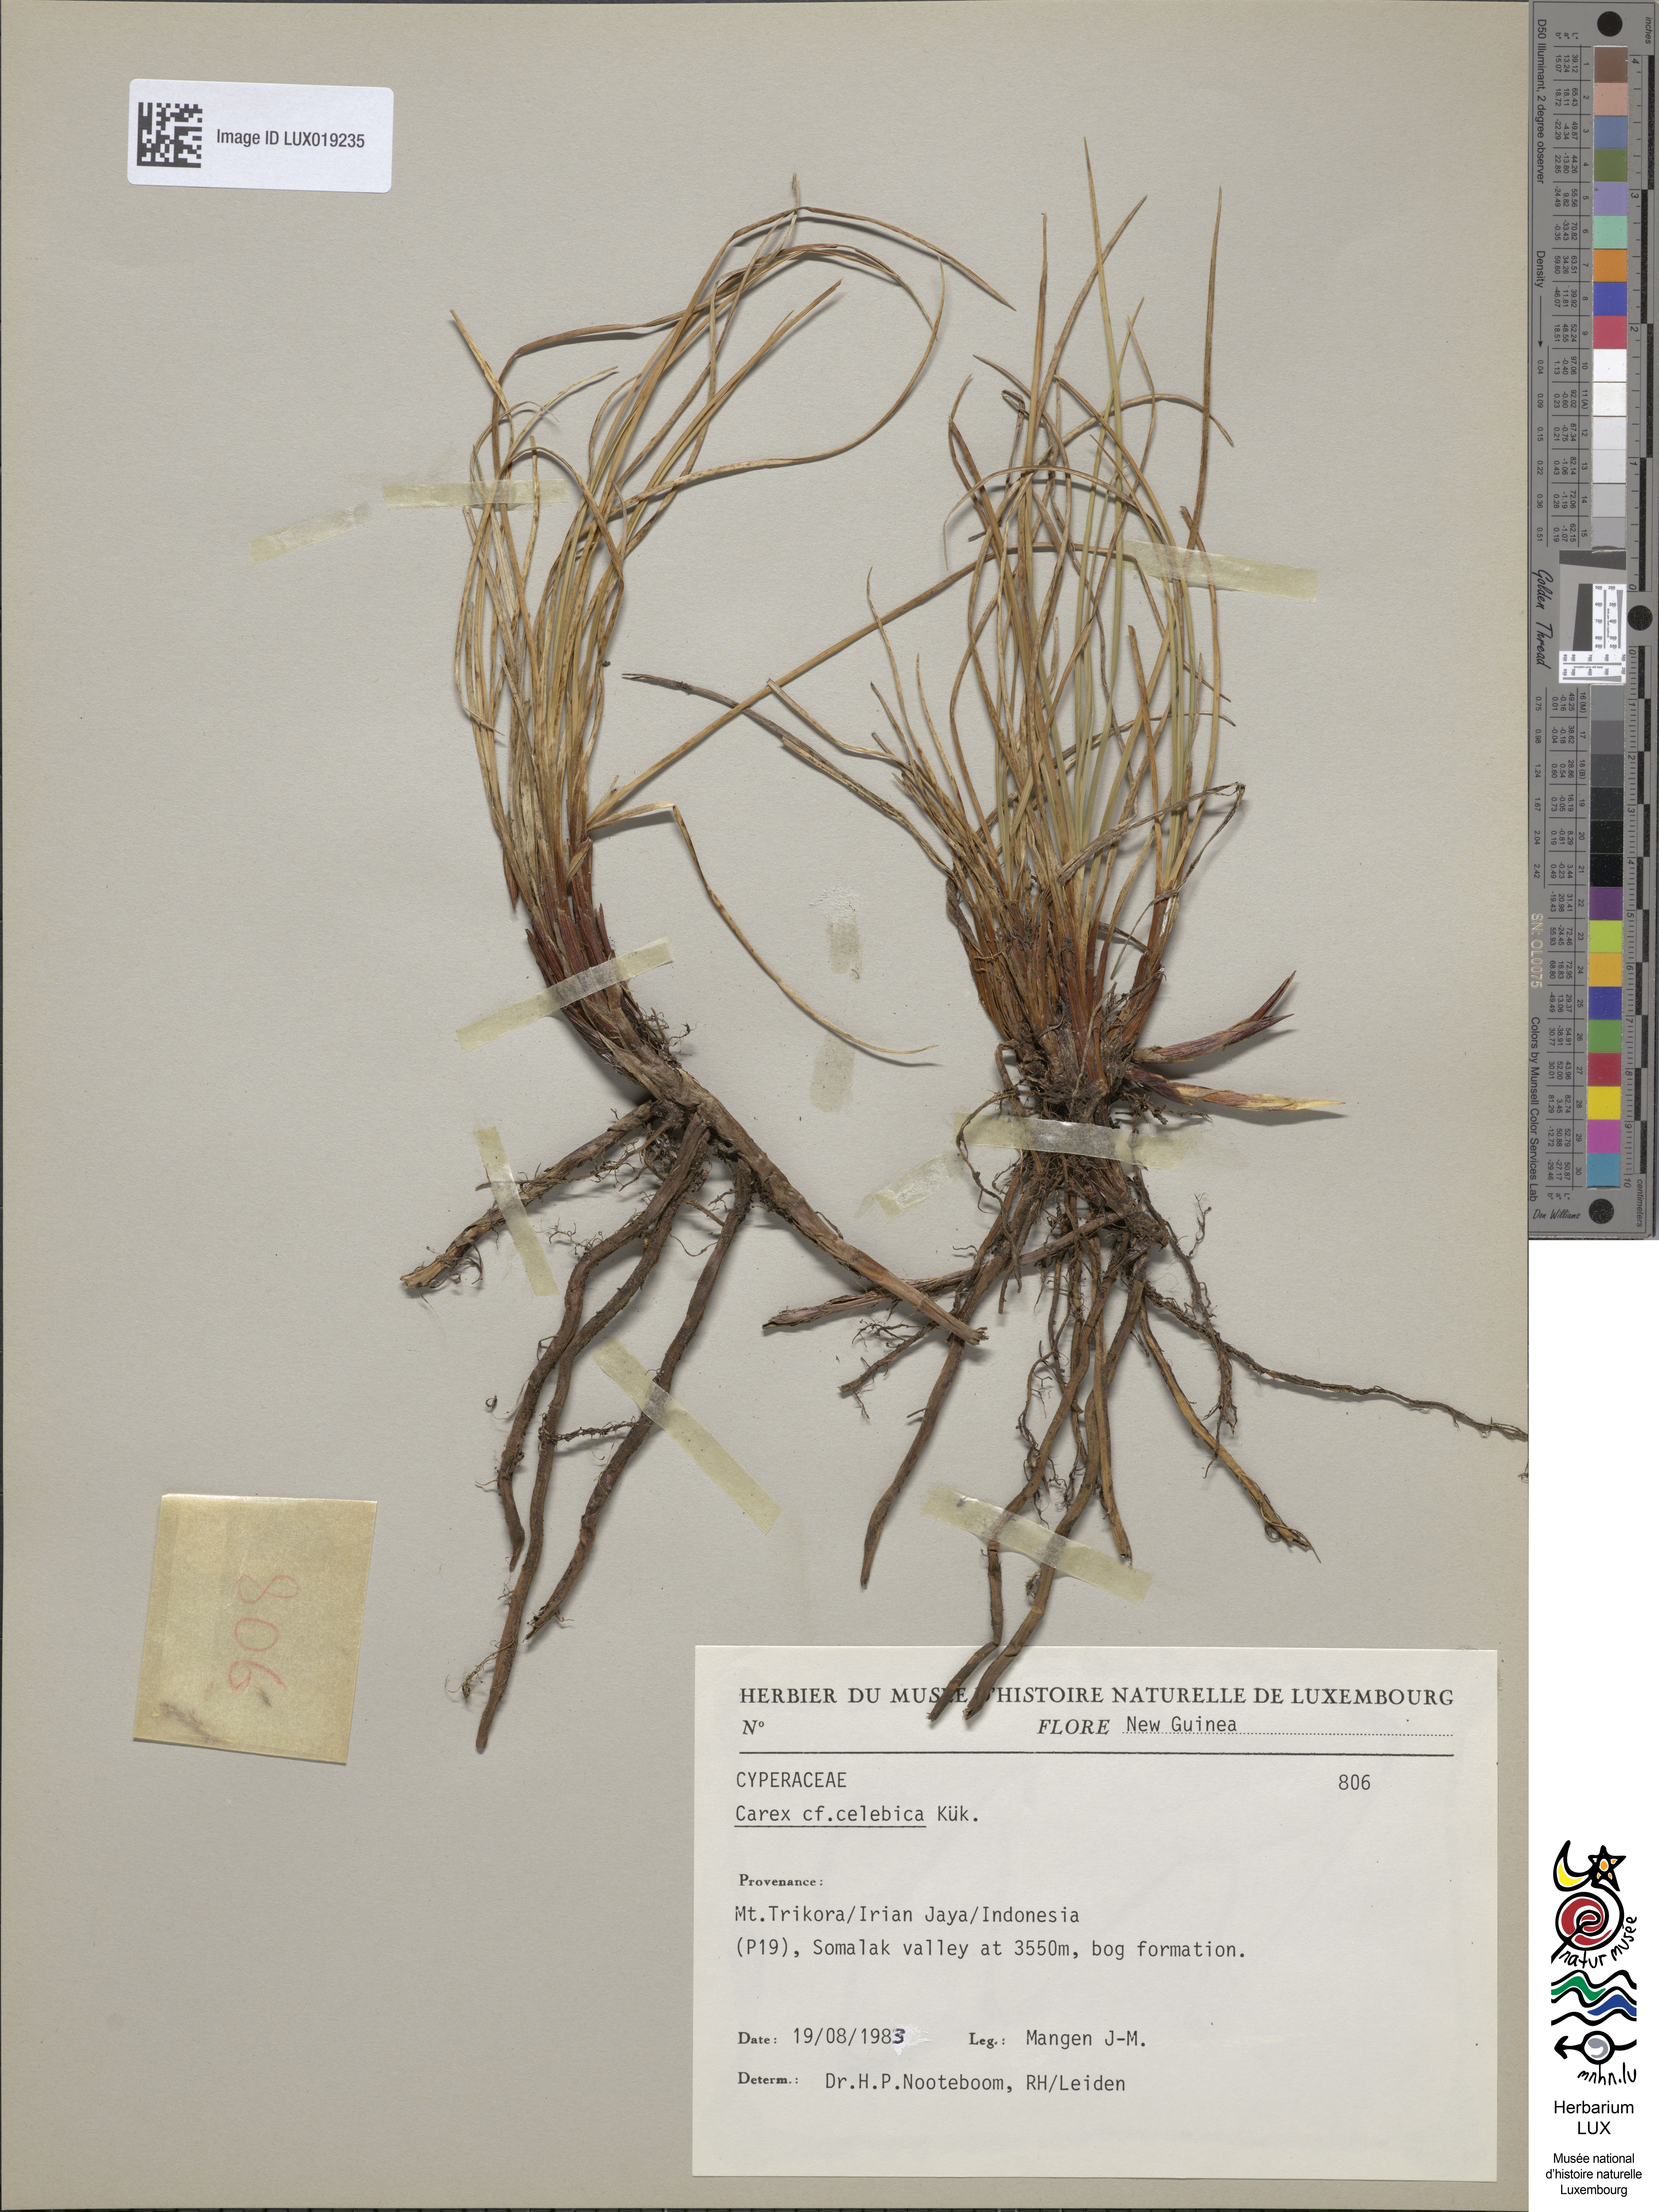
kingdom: Plantae
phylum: Tracheophyta
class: Liliopsida
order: Poales
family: Cyperaceae
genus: Carex
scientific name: Carex celebica
